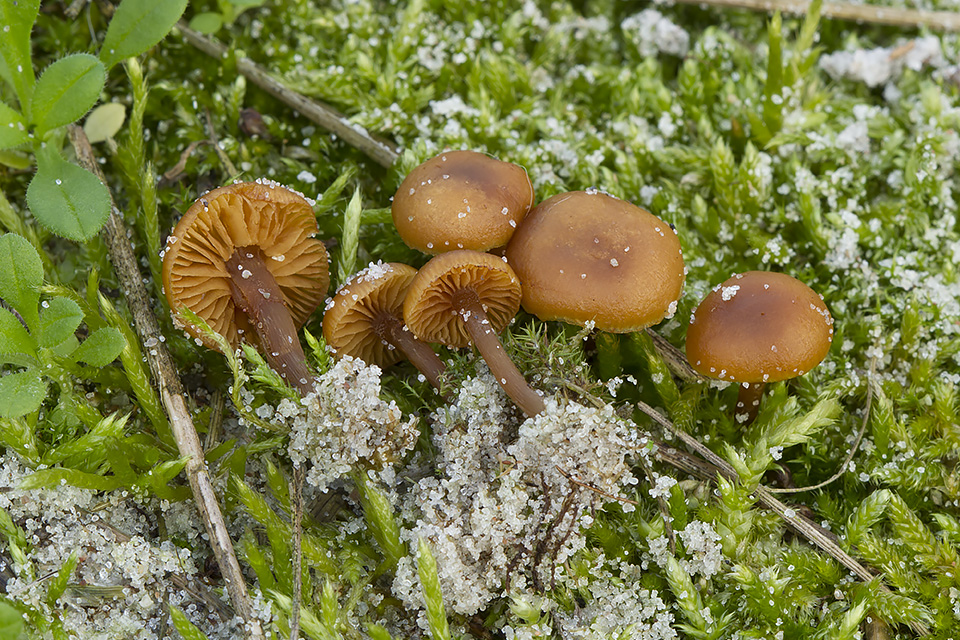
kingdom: Fungi
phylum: Basidiomycota
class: Agaricomycetes
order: Agaricales
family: Hymenogastraceae
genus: Galerina
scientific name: Galerina esteve-raventosii
